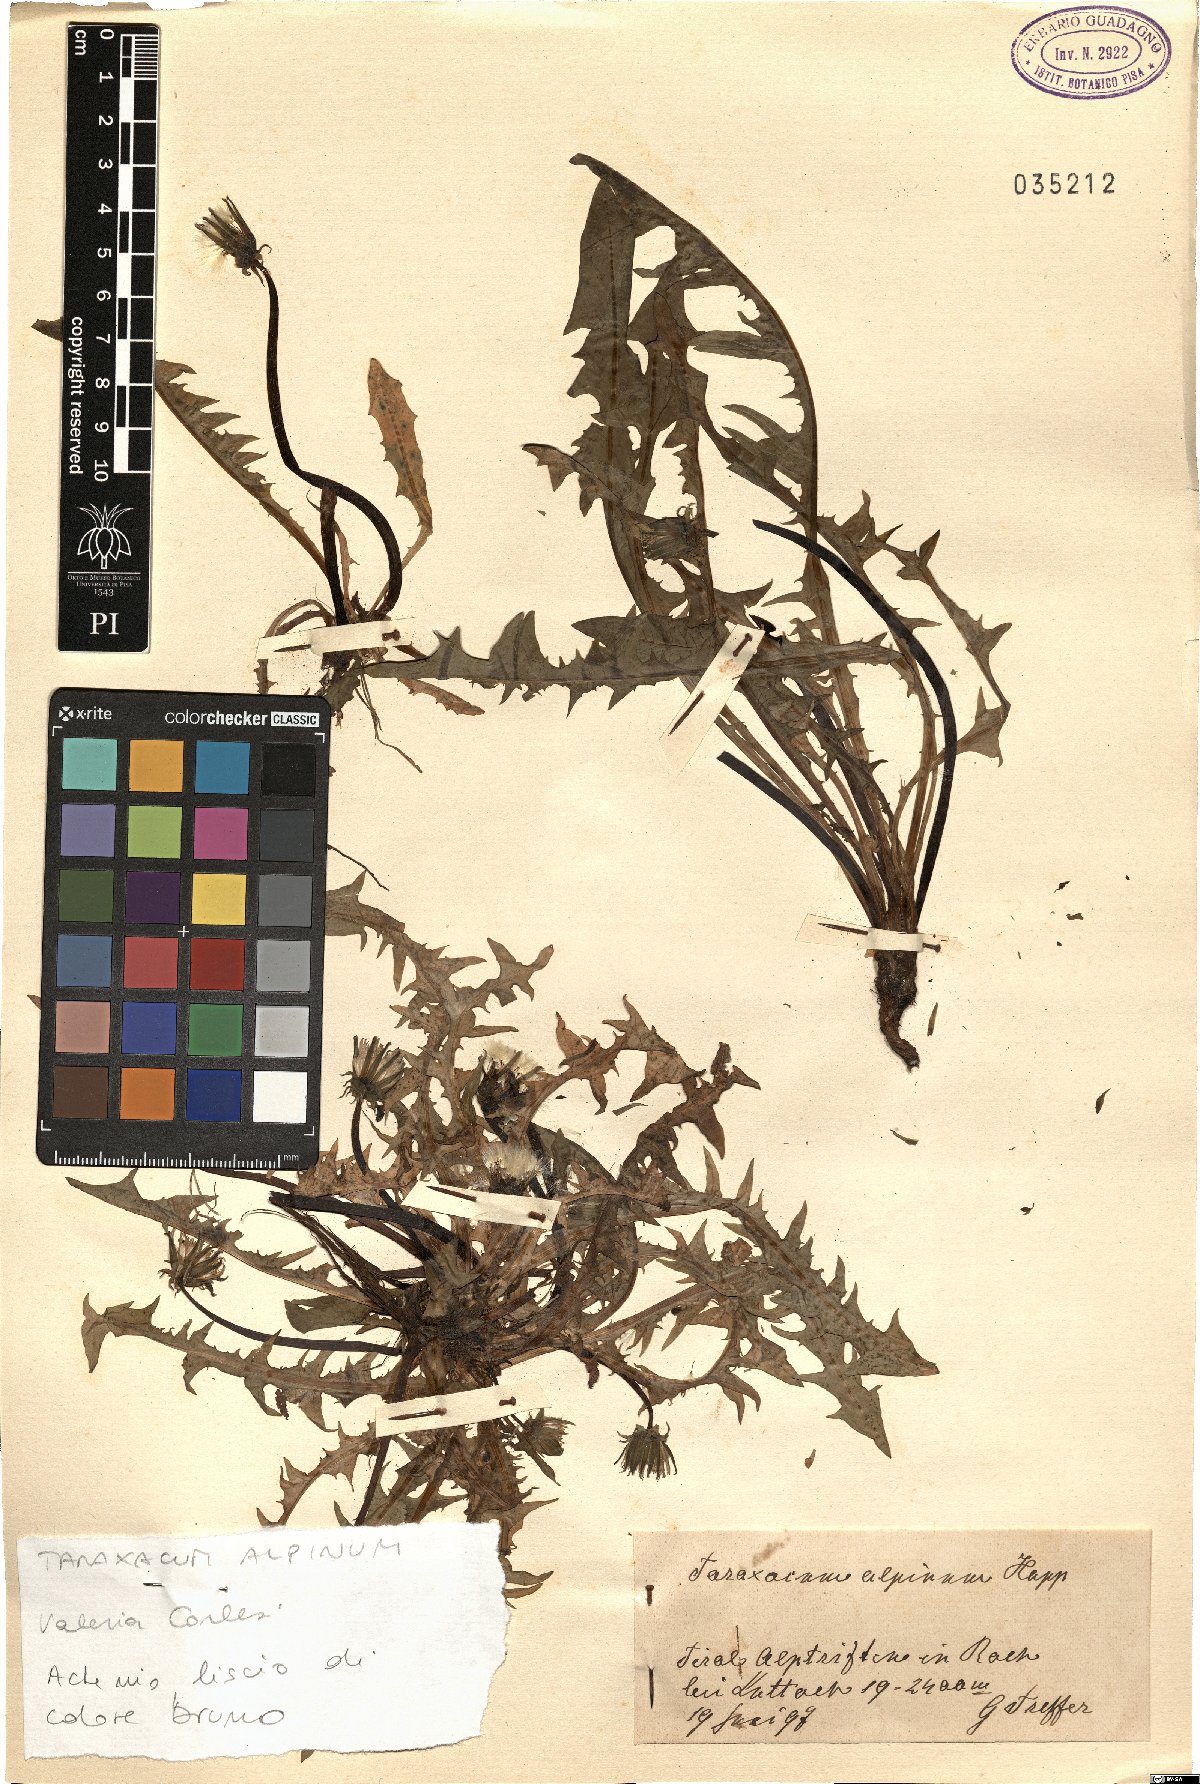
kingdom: Plantae
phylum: Tracheophyta
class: Magnoliopsida
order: Asterales
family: Asteraceae
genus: Taraxacum
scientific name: Taraxacum alpinum
